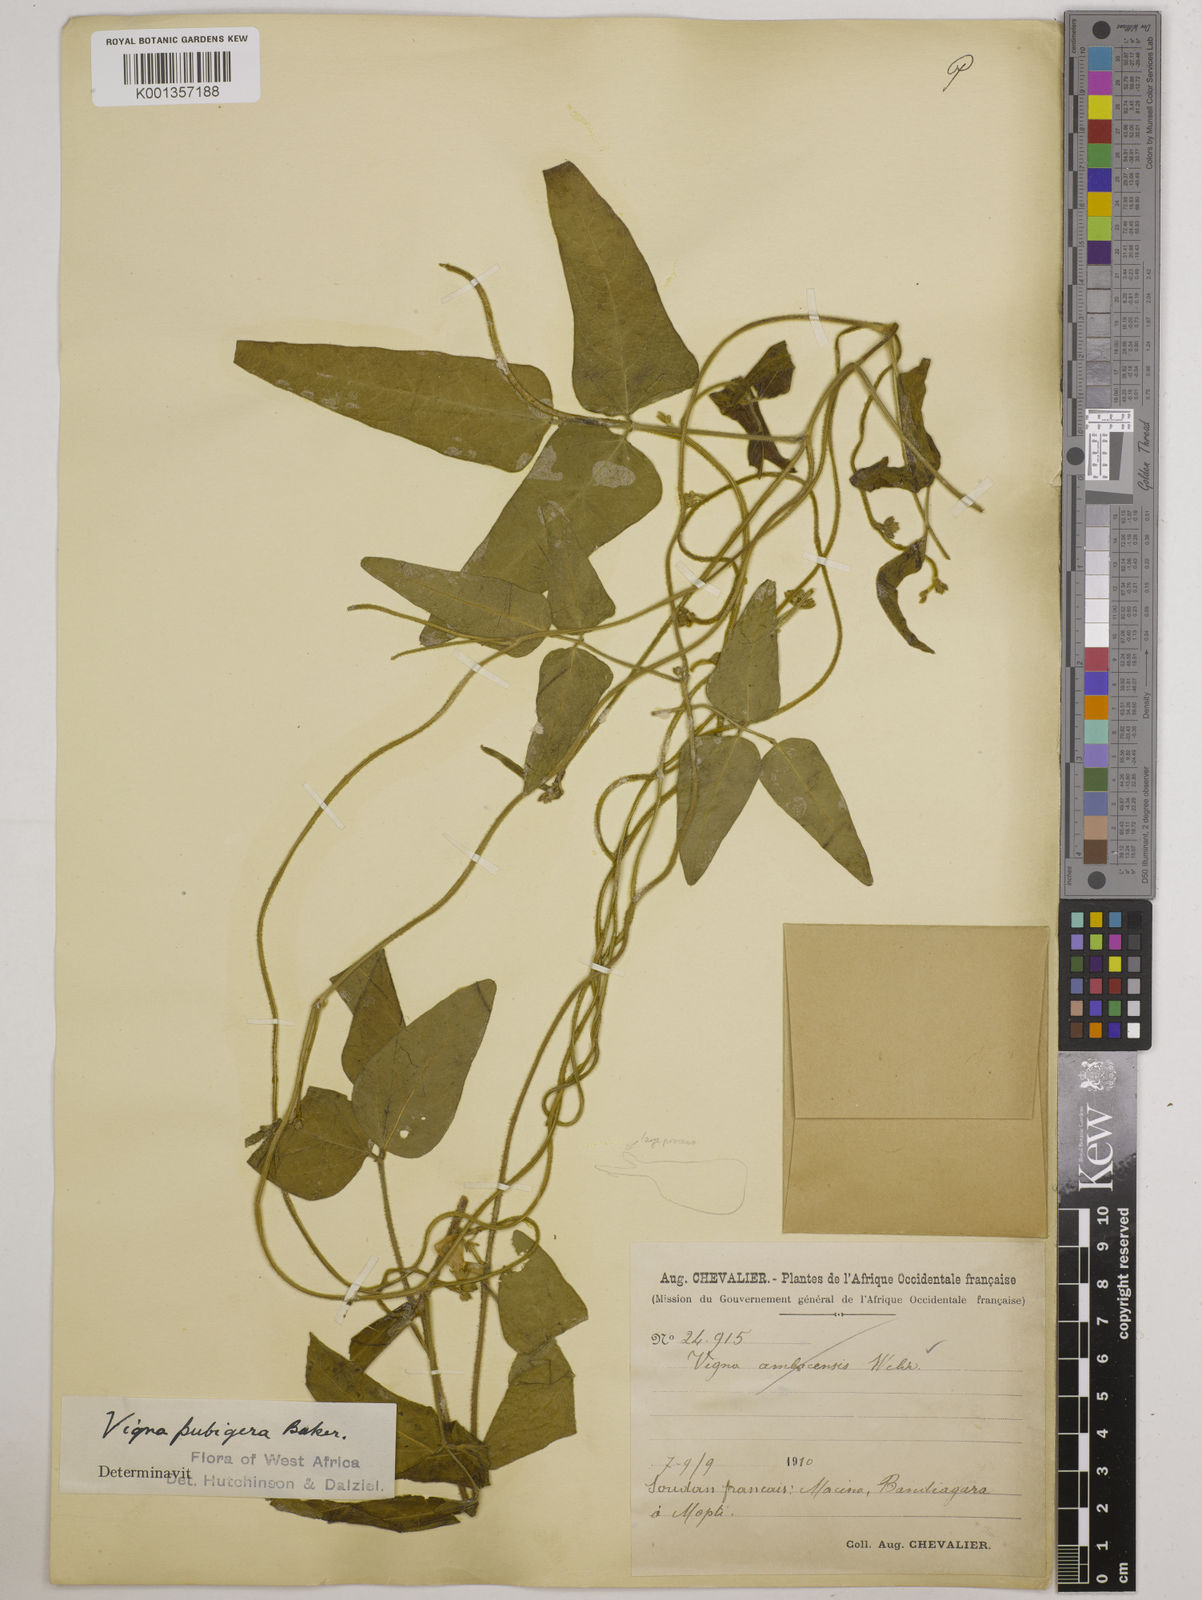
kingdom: Plantae
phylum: Tracheophyta
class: Magnoliopsida
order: Fabales
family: Fabaceae
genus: Vigna
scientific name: Vigna ambacensis
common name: Tsarkiyan zomo
